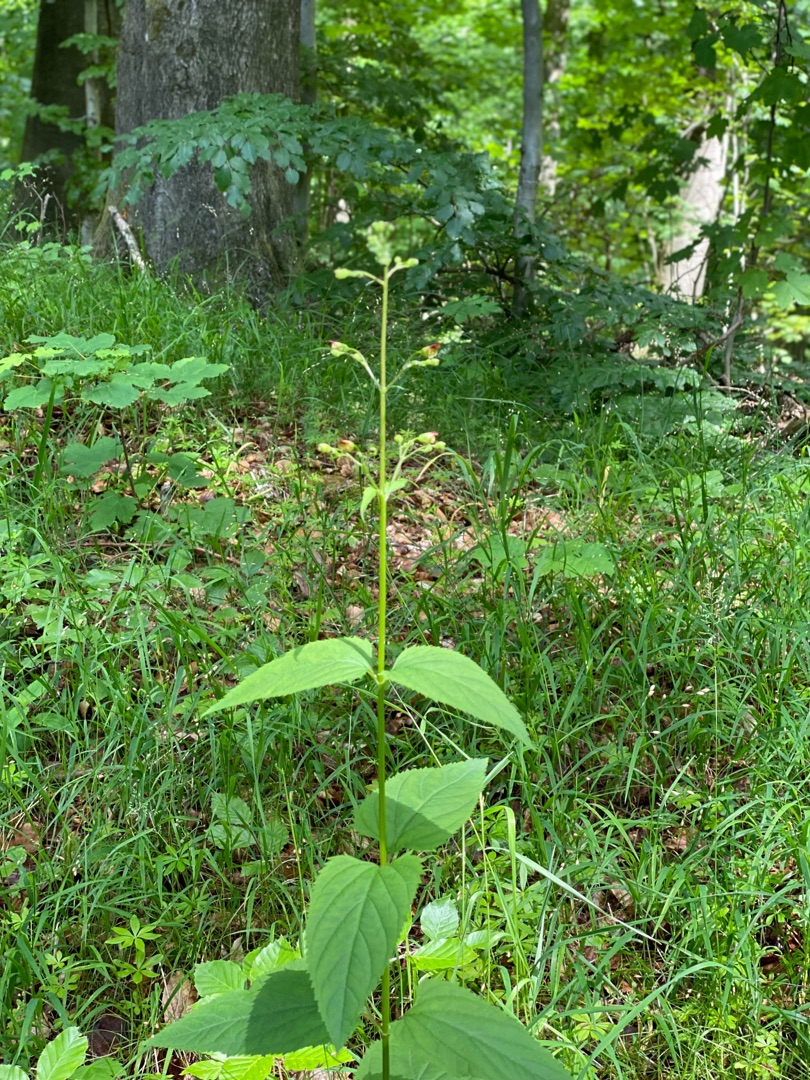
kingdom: Plantae
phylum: Tracheophyta
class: Magnoliopsida
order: Lamiales
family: Scrophulariaceae
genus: Scrophularia
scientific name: Scrophularia nodosa
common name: Knoldet brunrod
